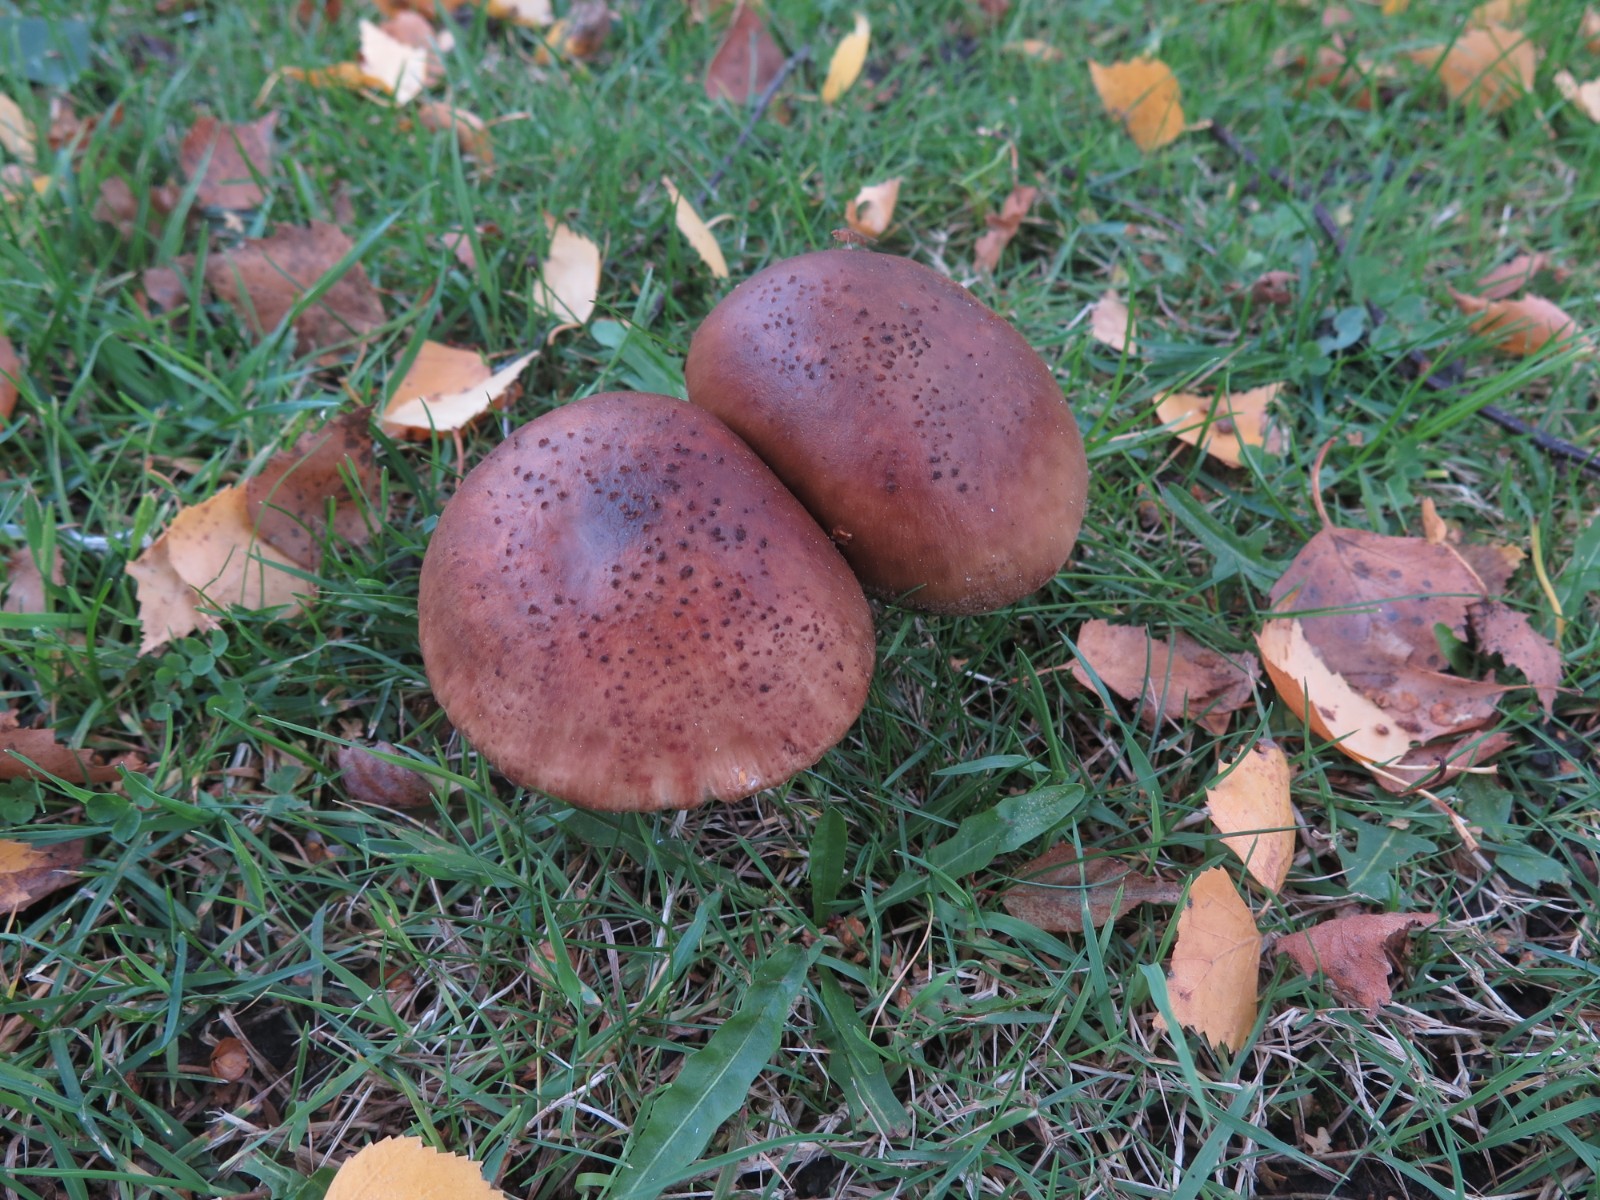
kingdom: Fungi
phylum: Basidiomycota
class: Agaricomycetes
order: Agaricales
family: Tricholomataceae
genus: Tricholoma
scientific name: Tricholoma fulvum
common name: birke-ridderhat
